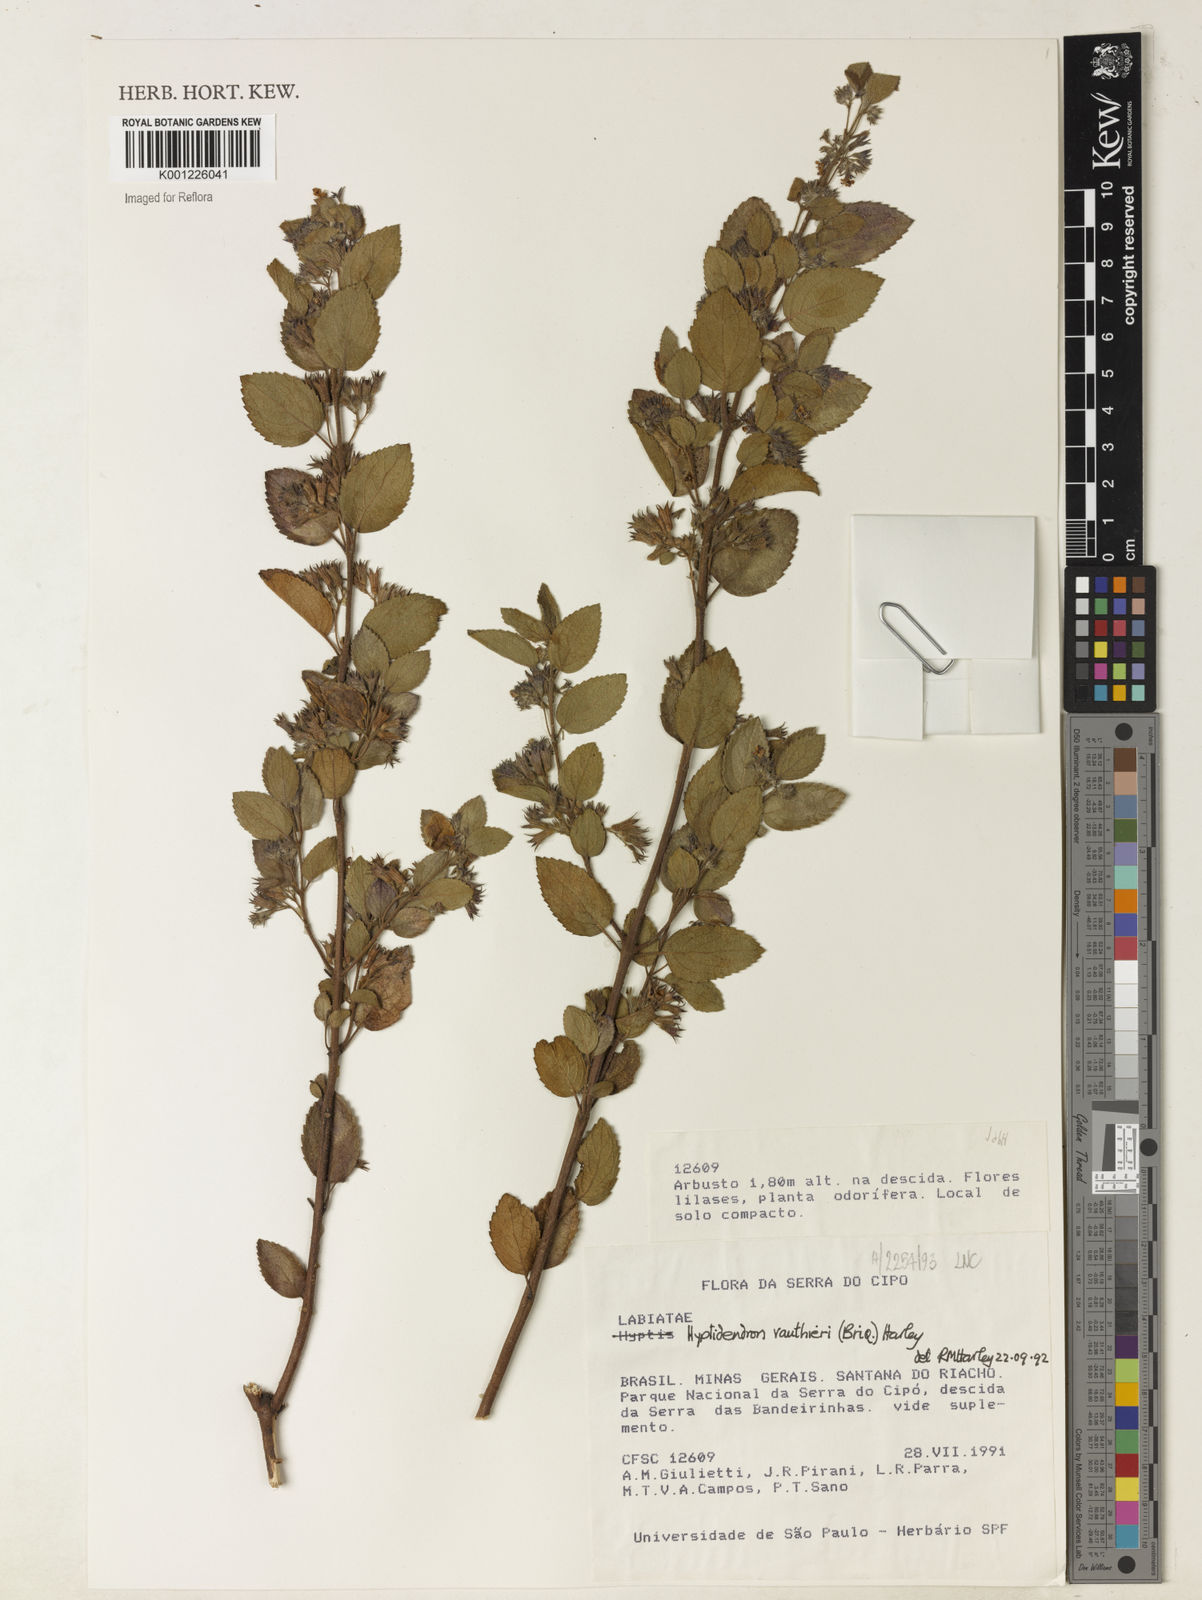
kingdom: Plantae
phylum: Tracheophyta
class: Magnoliopsida
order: Lamiales
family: Lamiaceae
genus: Hyptidendron
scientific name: Hyptidendron vauthieri
